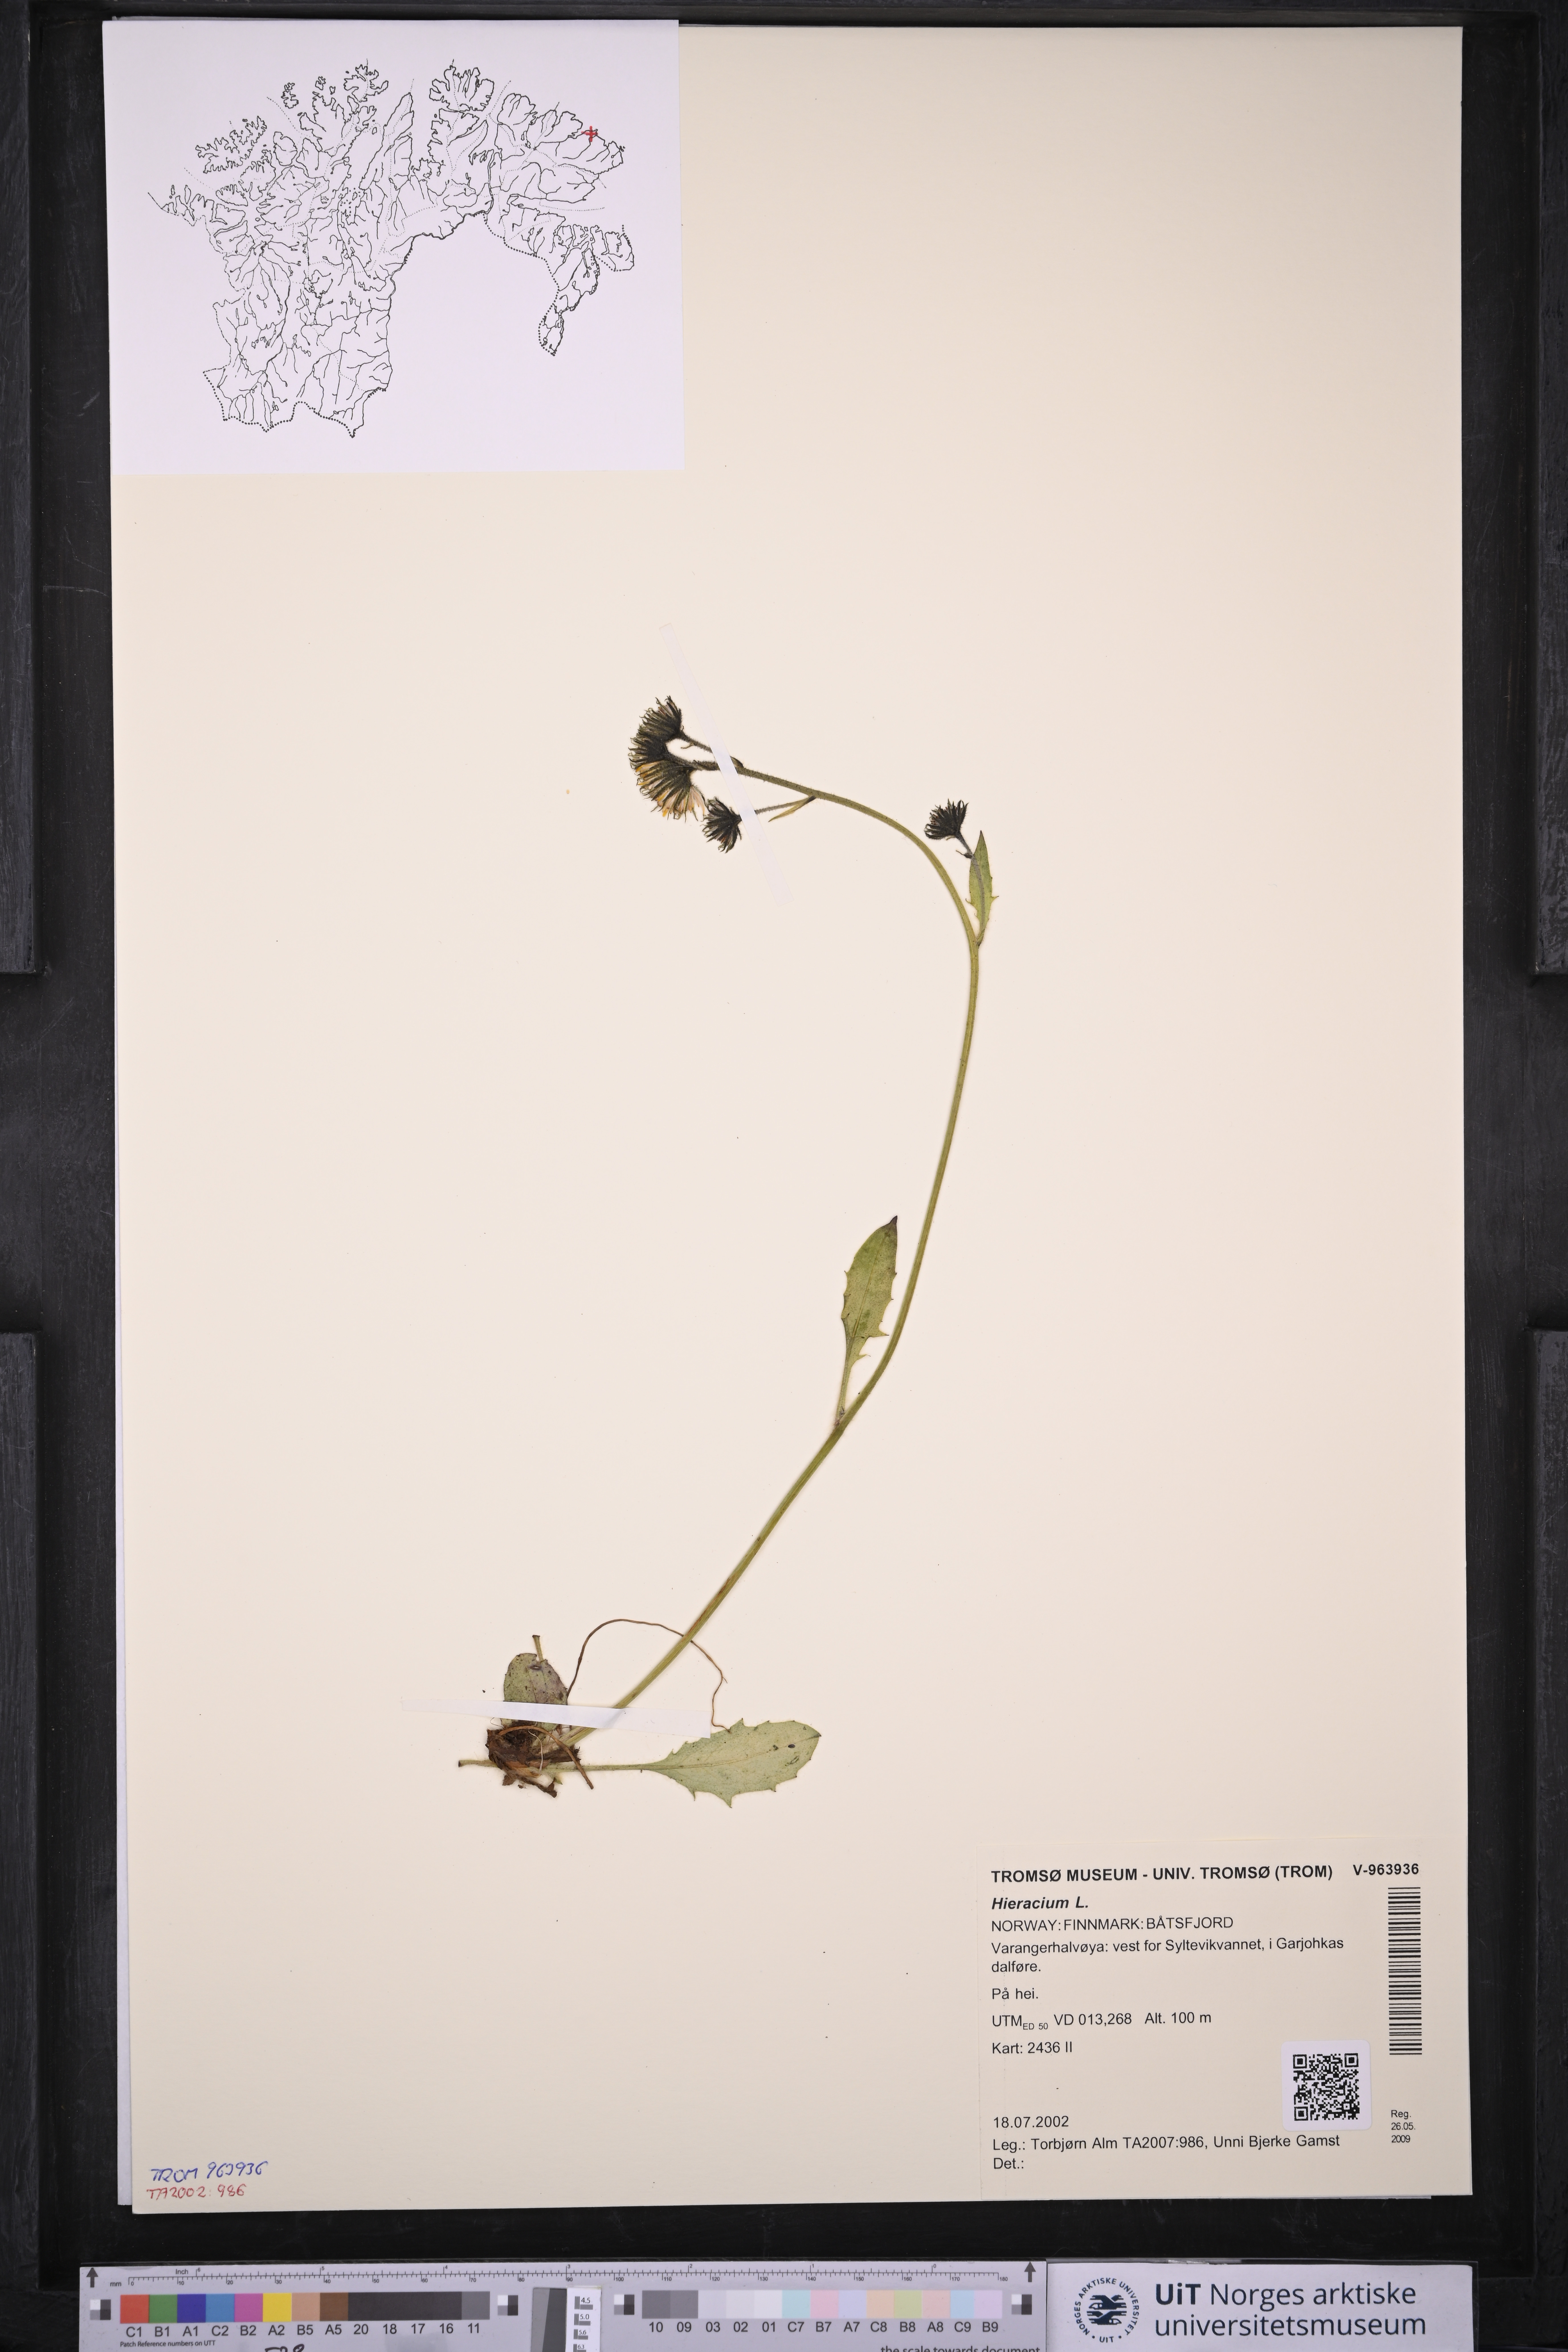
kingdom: Plantae
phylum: Tracheophyta
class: Magnoliopsida
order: Asterales
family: Asteraceae
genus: Hieracium
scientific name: Hieracium
